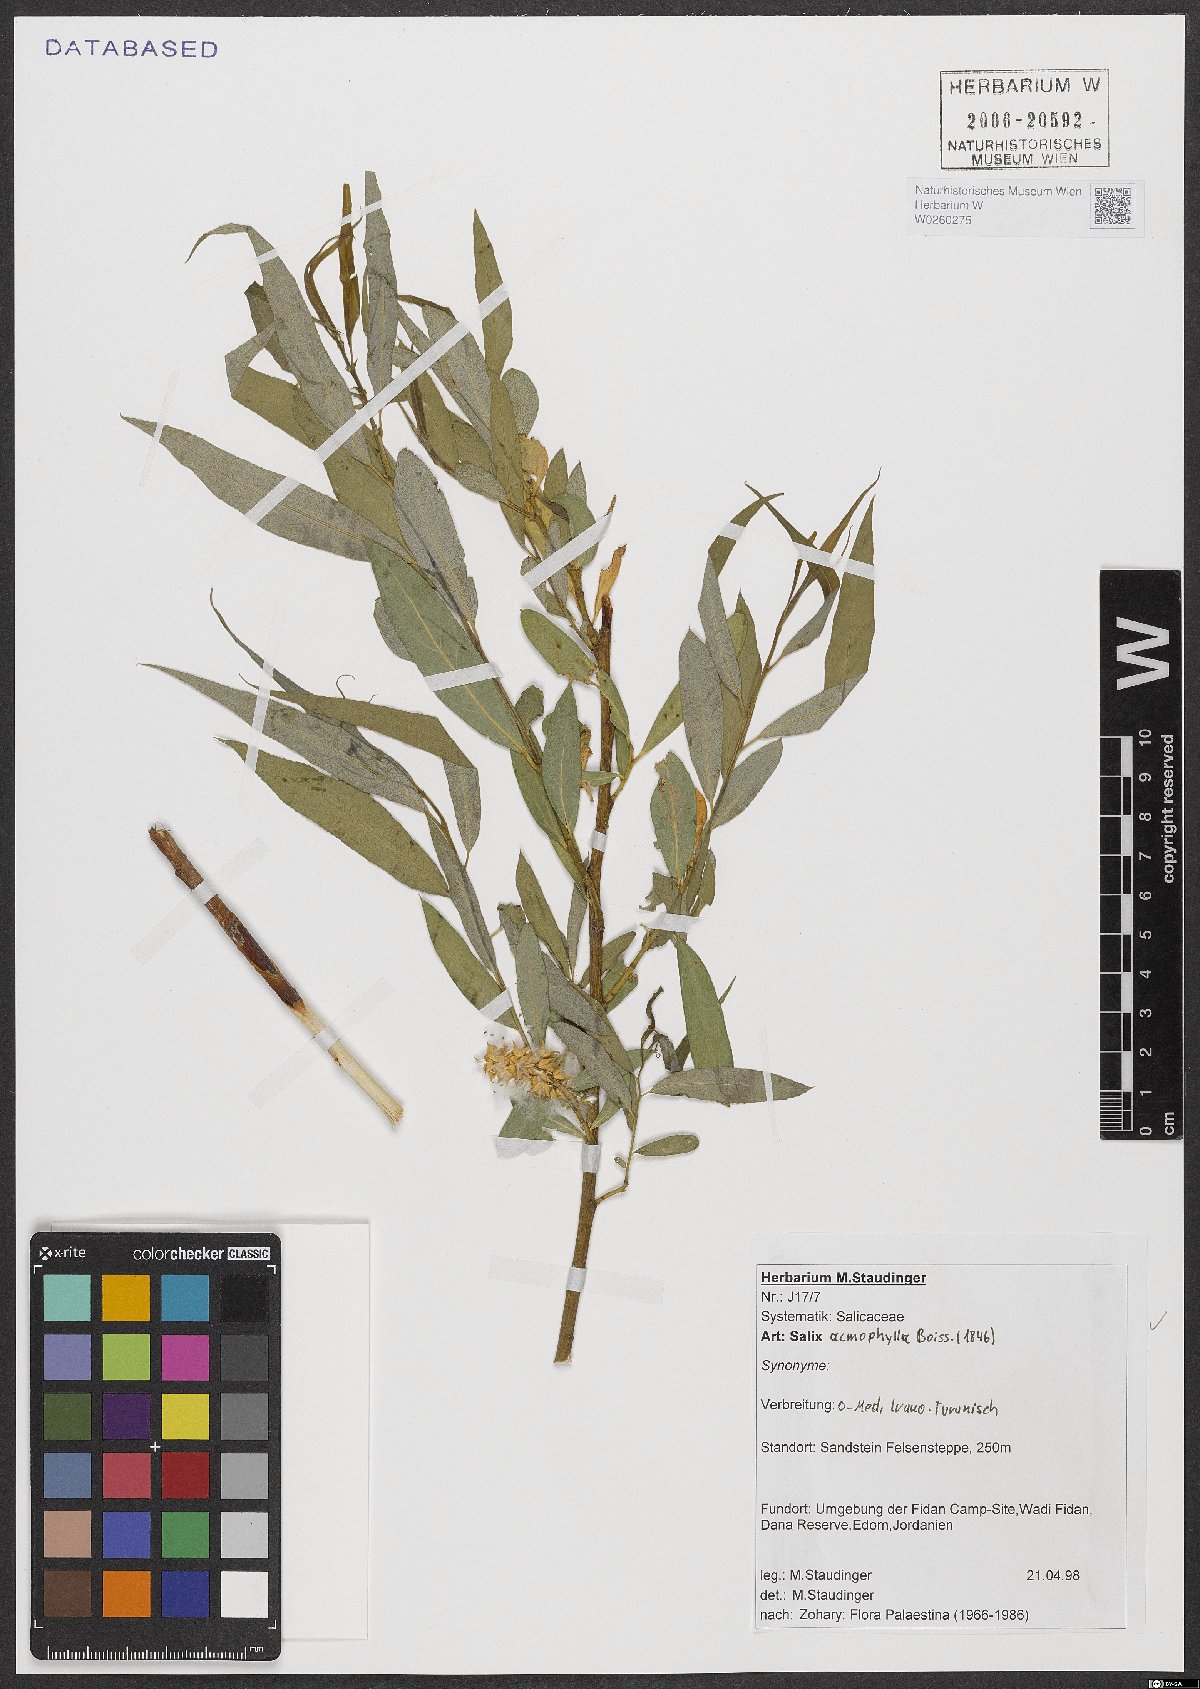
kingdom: Plantae
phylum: Tracheophyta
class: Magnoliopsida
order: Malpighiales
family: Salicaceae
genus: Salix
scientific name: Salix acmophylla
